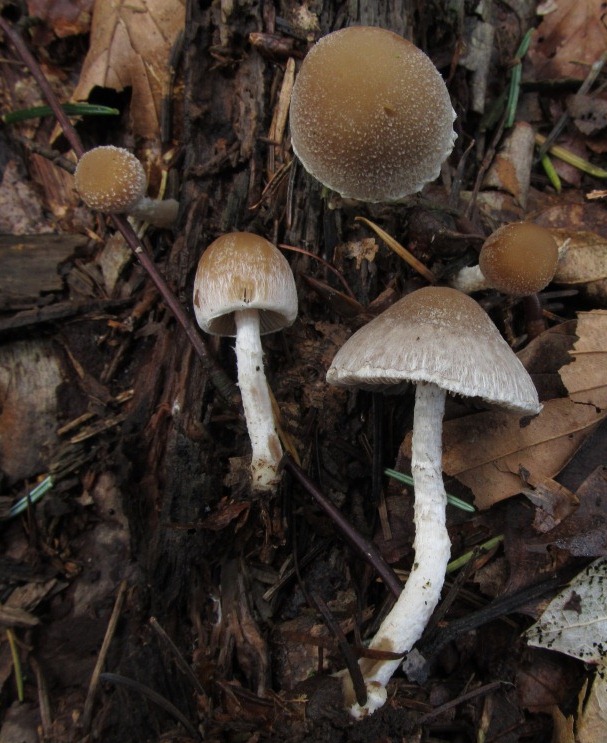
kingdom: Fungi
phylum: Basidiomycota
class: Agaricomycetes
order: Agaricales
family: Psathyrellaceae
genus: Psathyrella
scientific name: Psathyrella fibrillosa
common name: almindelig mørkhat
